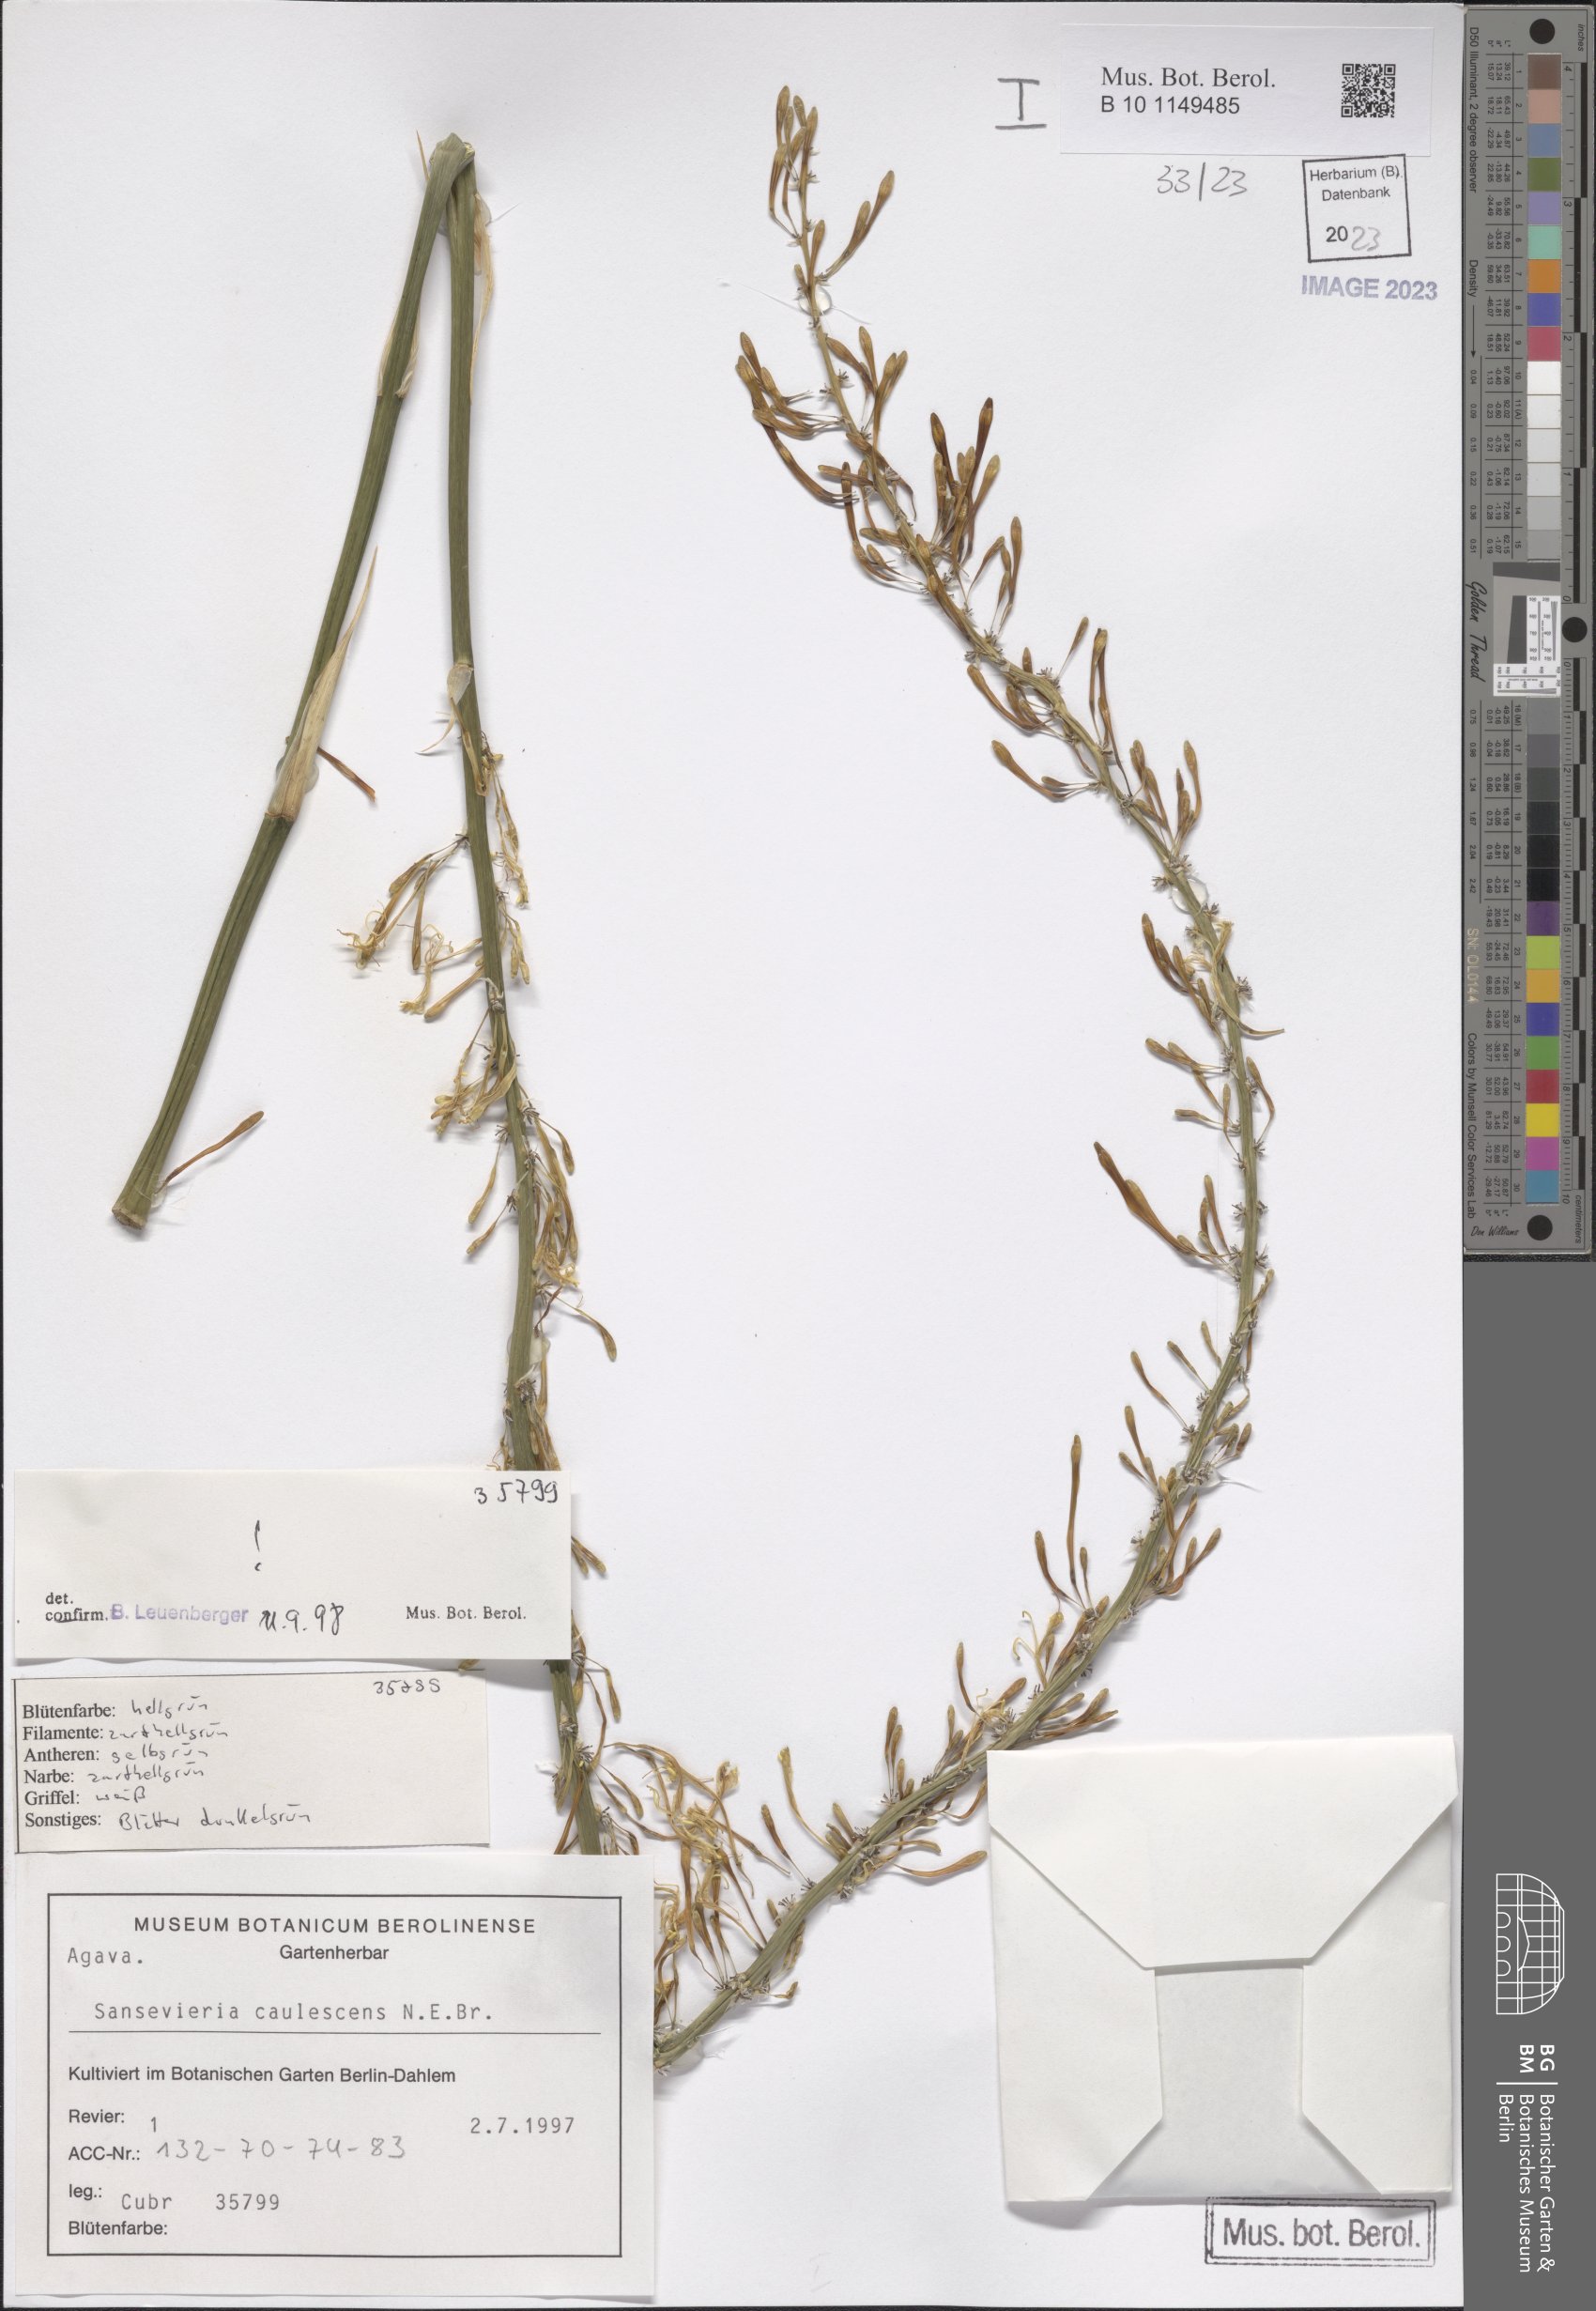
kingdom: Plantae
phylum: Tracheophyta
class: Liliopsida
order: Asparagales
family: Asparagaceae
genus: Dracaena
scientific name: Dracaena caulescens
